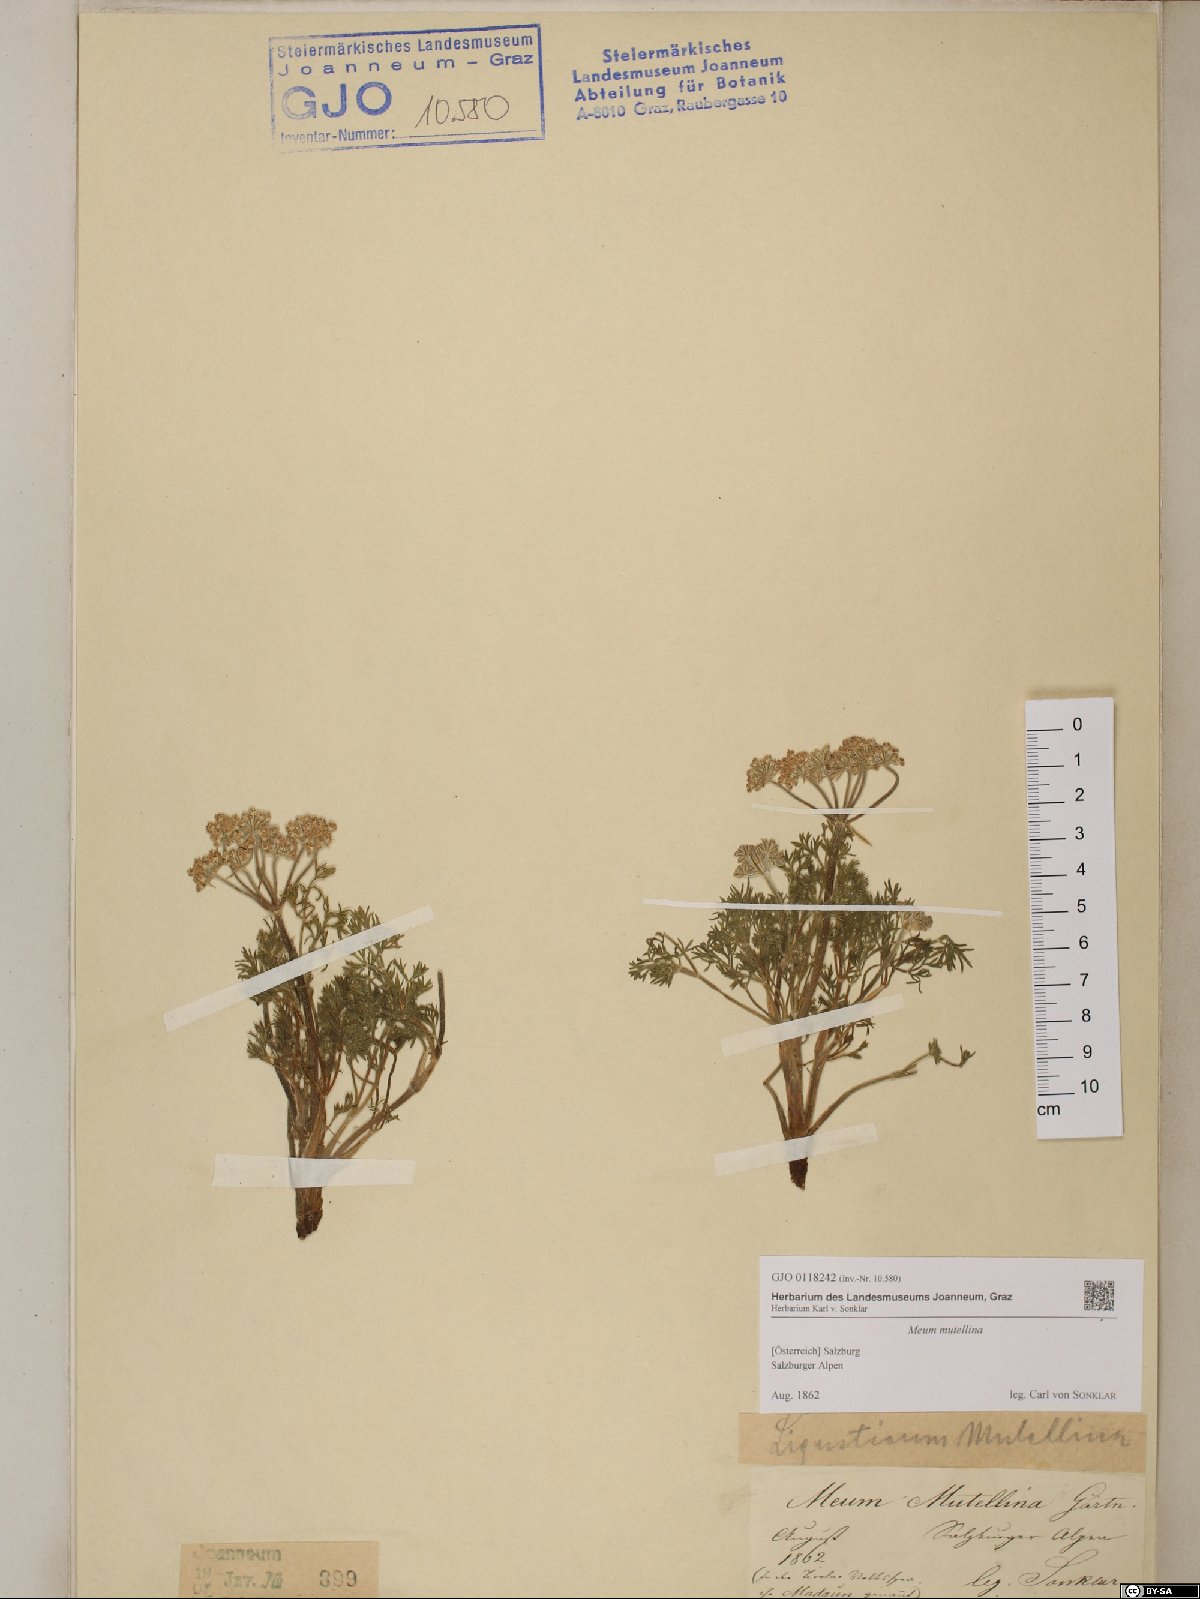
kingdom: Plantae
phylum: Tracheophyta
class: Magnoliopsida
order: Apiales
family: Apiaceae
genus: Mutellina
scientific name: Mutellina adonidifolia
